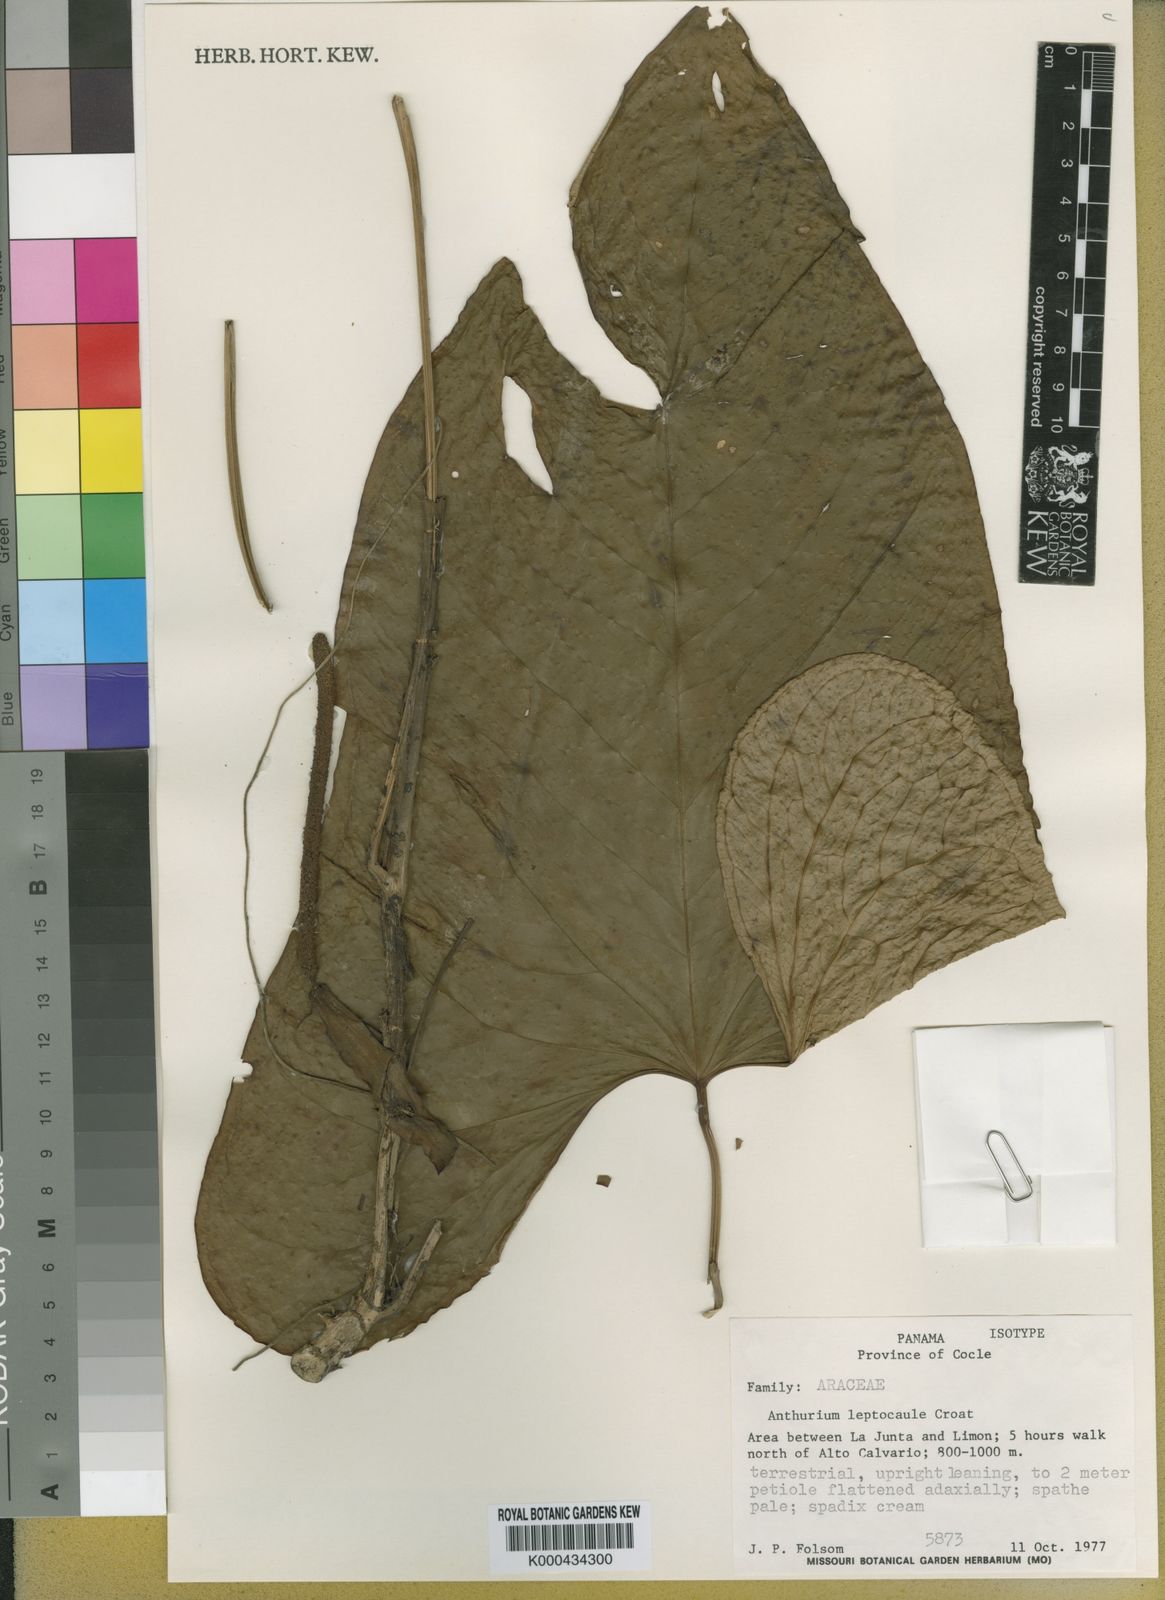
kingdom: Plantae
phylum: Tracheophyta
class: Liliopsida
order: Alismatales
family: Araceae
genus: Anthurium
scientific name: Anthurium leptocaule
